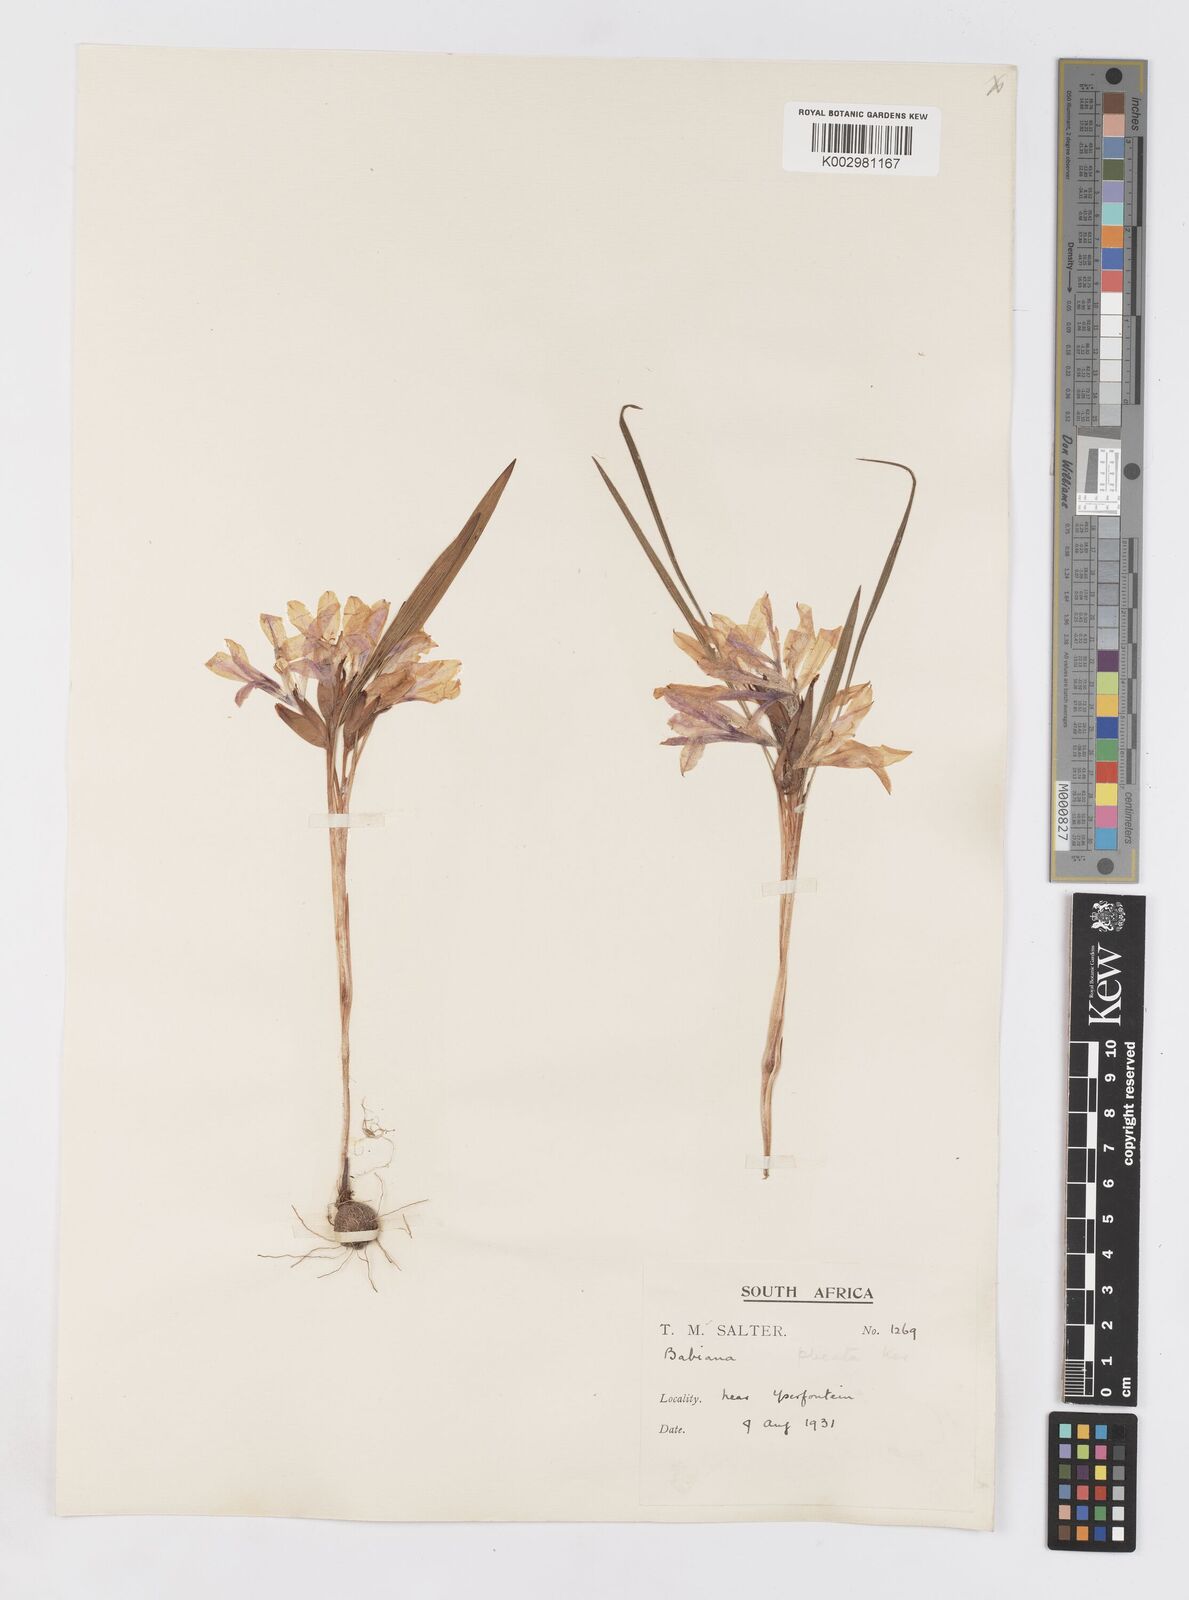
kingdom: Plantae
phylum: Tracheophyta
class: Liliopsida
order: Asparagales
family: Iridaceae
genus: Babiana
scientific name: Babiana
